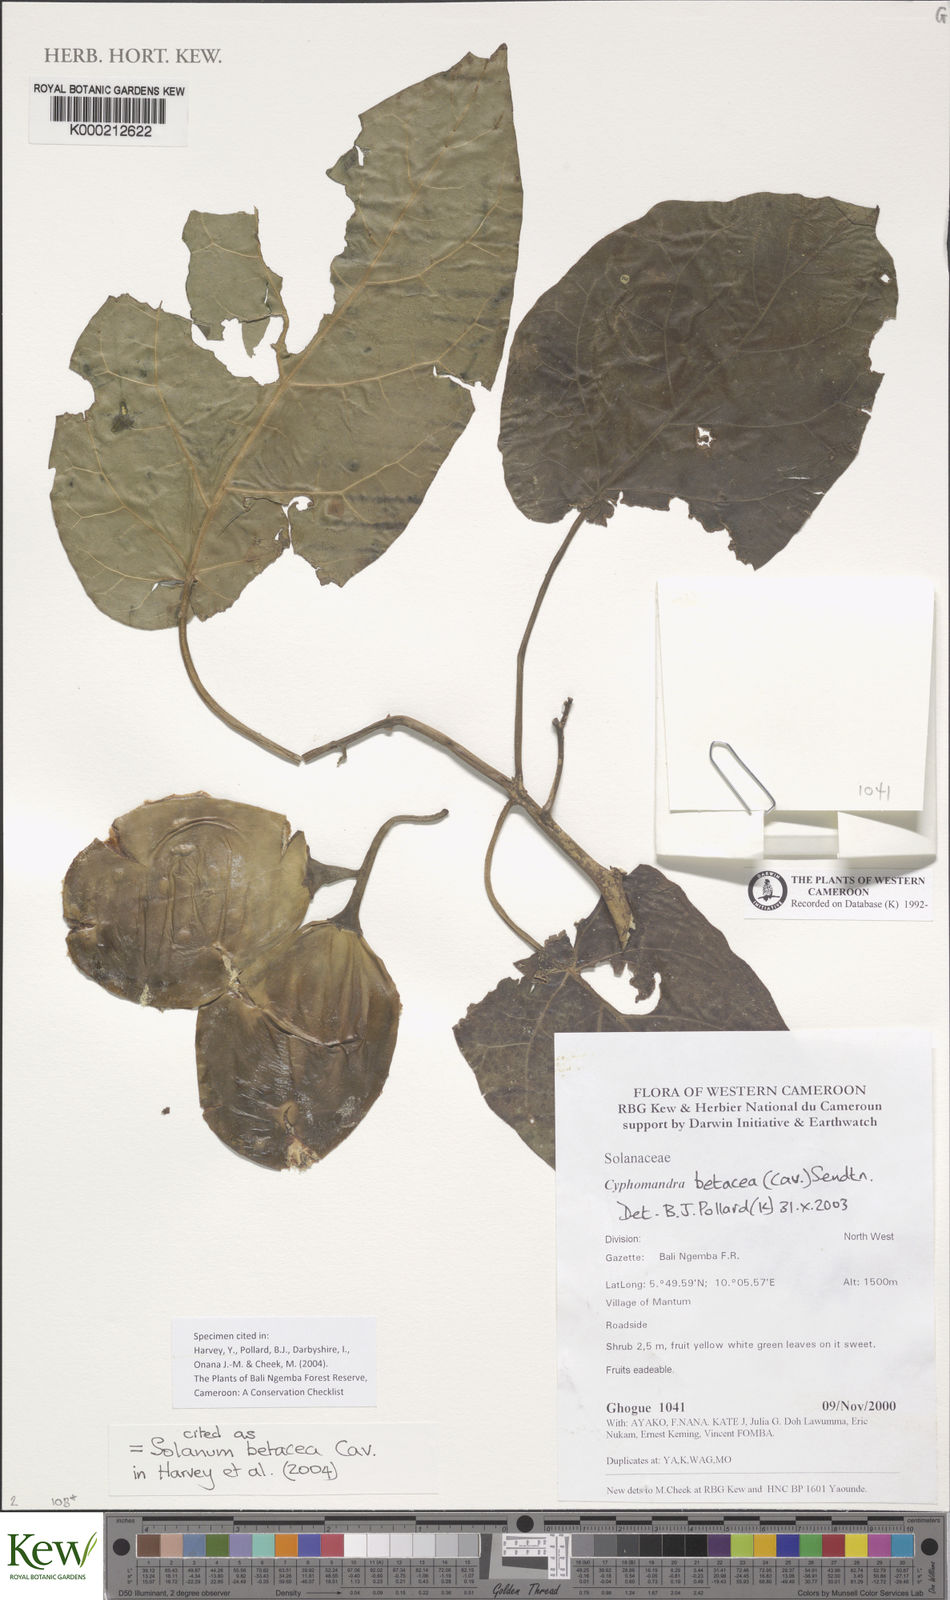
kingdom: Plantae
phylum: Tracheophyta
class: Magnoliopsida
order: Solanales
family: Solanaceae
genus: Solanum
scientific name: Solanum betaceum
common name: Tamarillo
